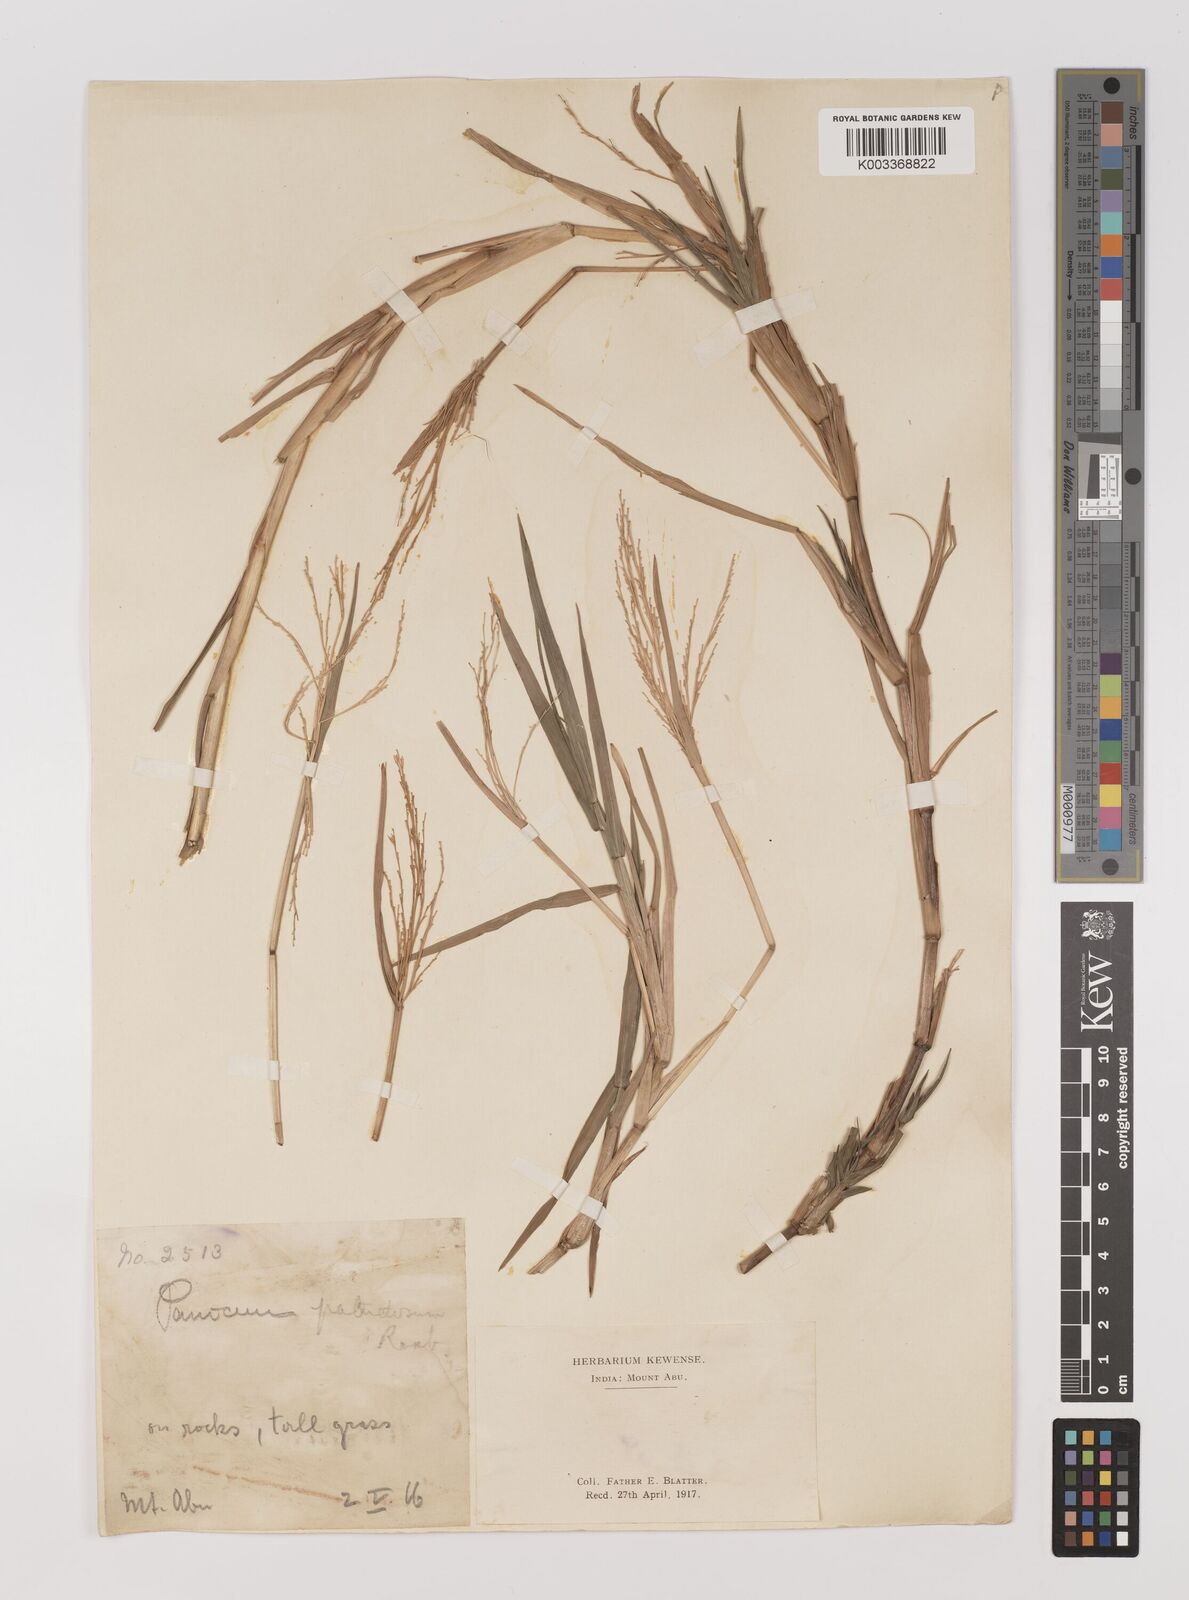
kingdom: Plantae
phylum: Tracheophyta
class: Liliopsida
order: Poales
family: Poaceae
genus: Louisiella
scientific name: Louisiella paludosa
